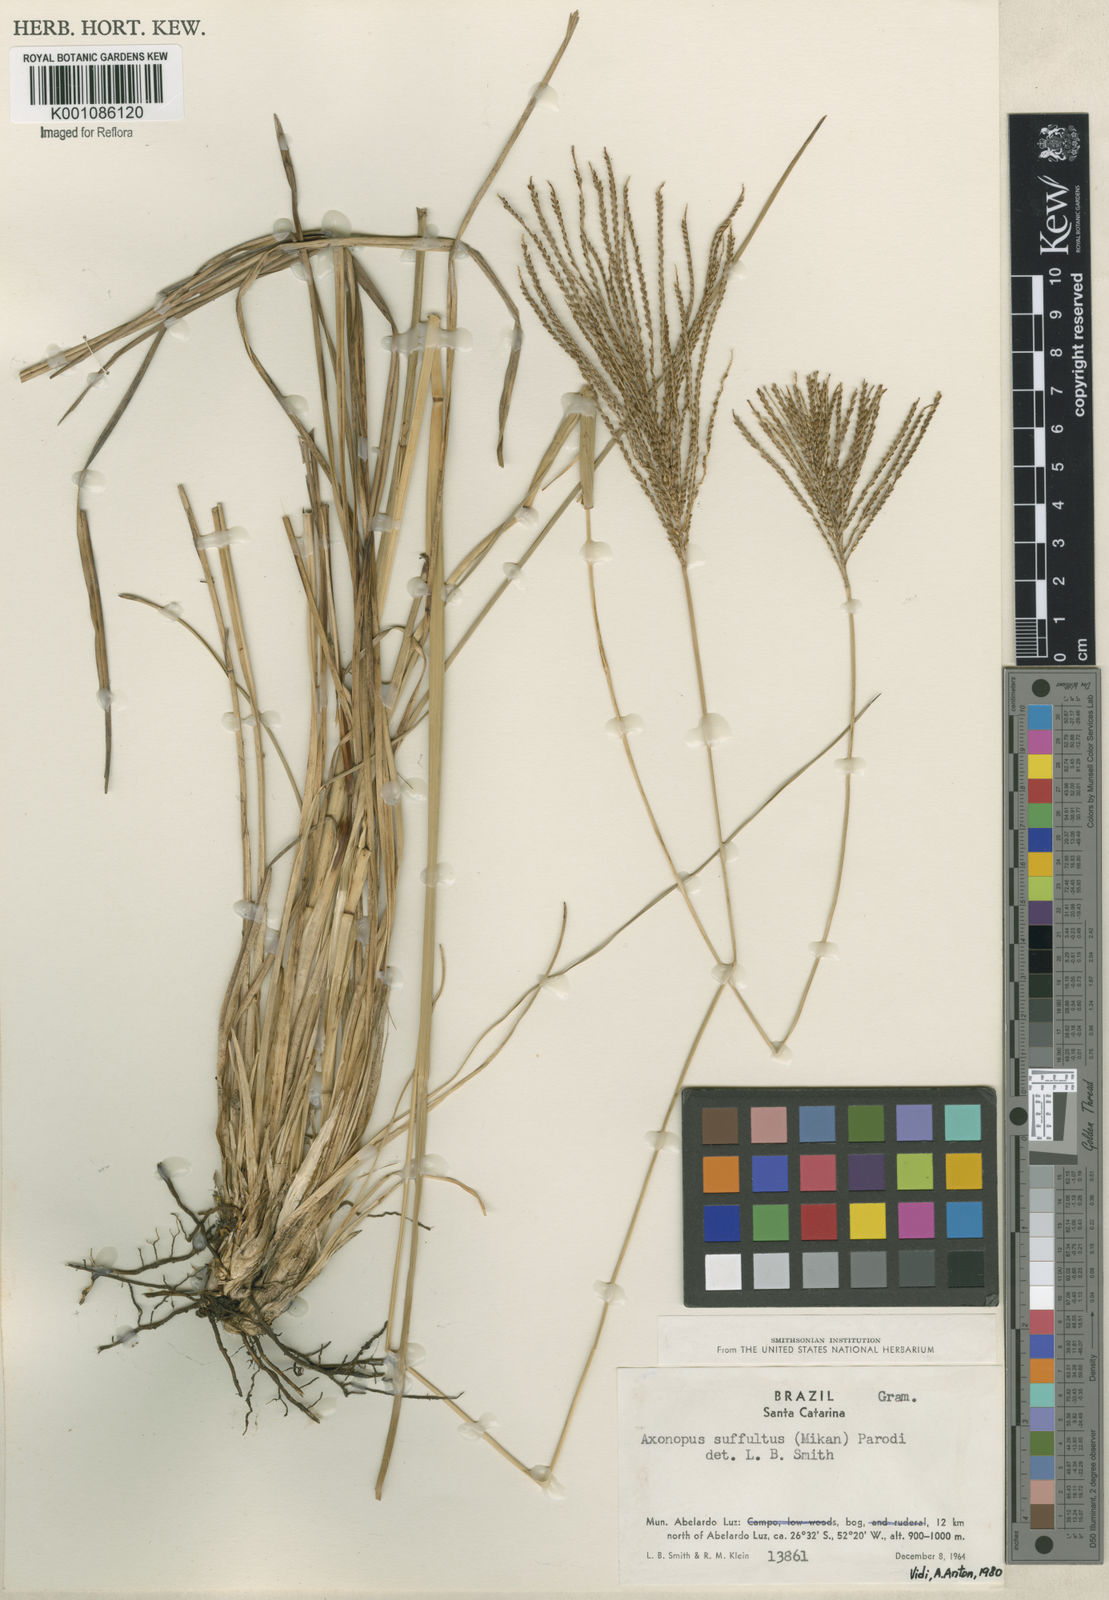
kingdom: Plantae
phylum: Tracheophyta
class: Liliopsida
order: Poales
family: Poaceae
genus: Axonopus
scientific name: Axonopus suffultus
